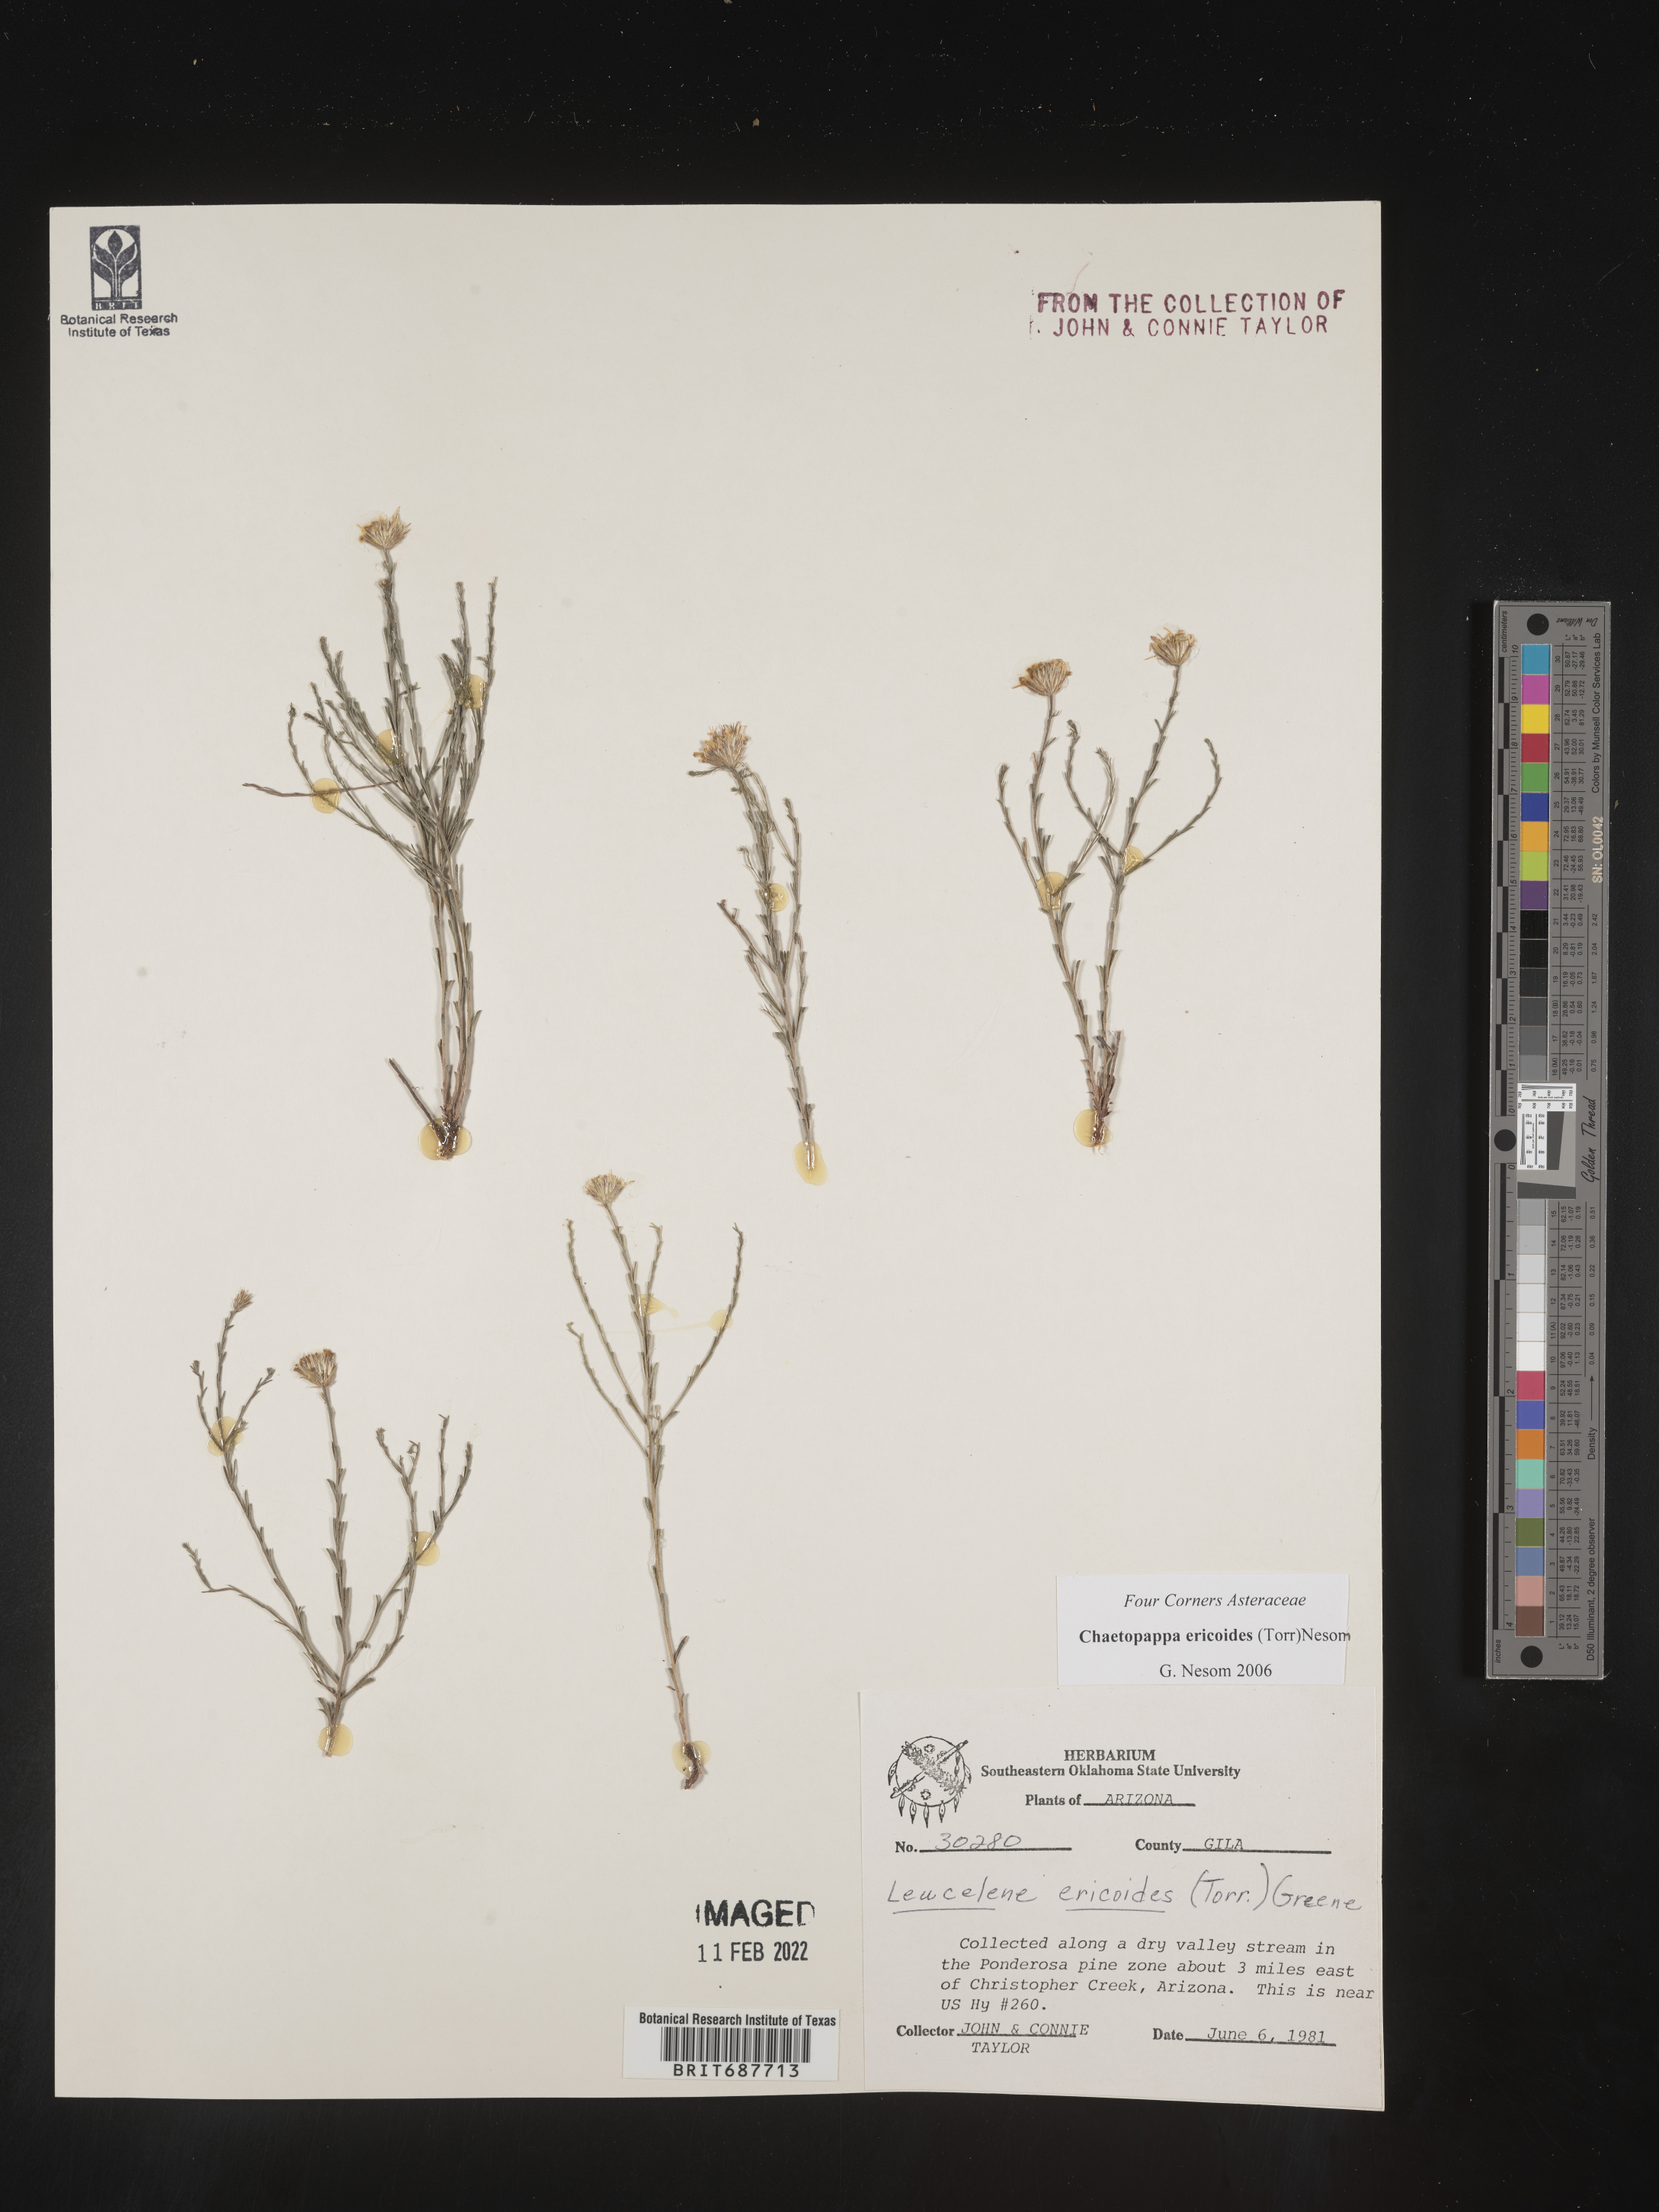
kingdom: Plantae
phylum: Tracheophyta
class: Magnoliopsida
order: Asterales
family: Asteraceae
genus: Chaetopappa
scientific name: Chaetopappa ericoides
